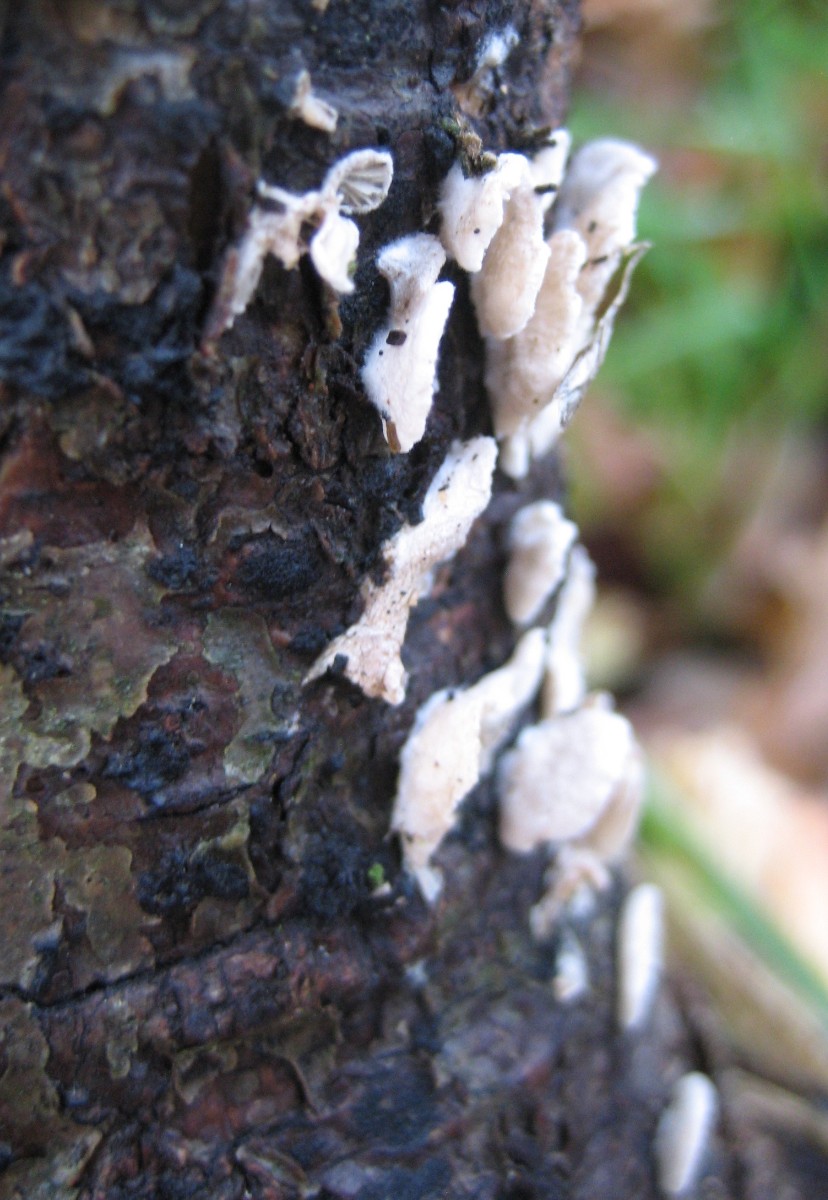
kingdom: Fungi
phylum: Basidiomycota
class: Agaricomycetes
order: Agaricales
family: Crepidotaceae
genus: Crepidotus
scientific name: Crepidotus
